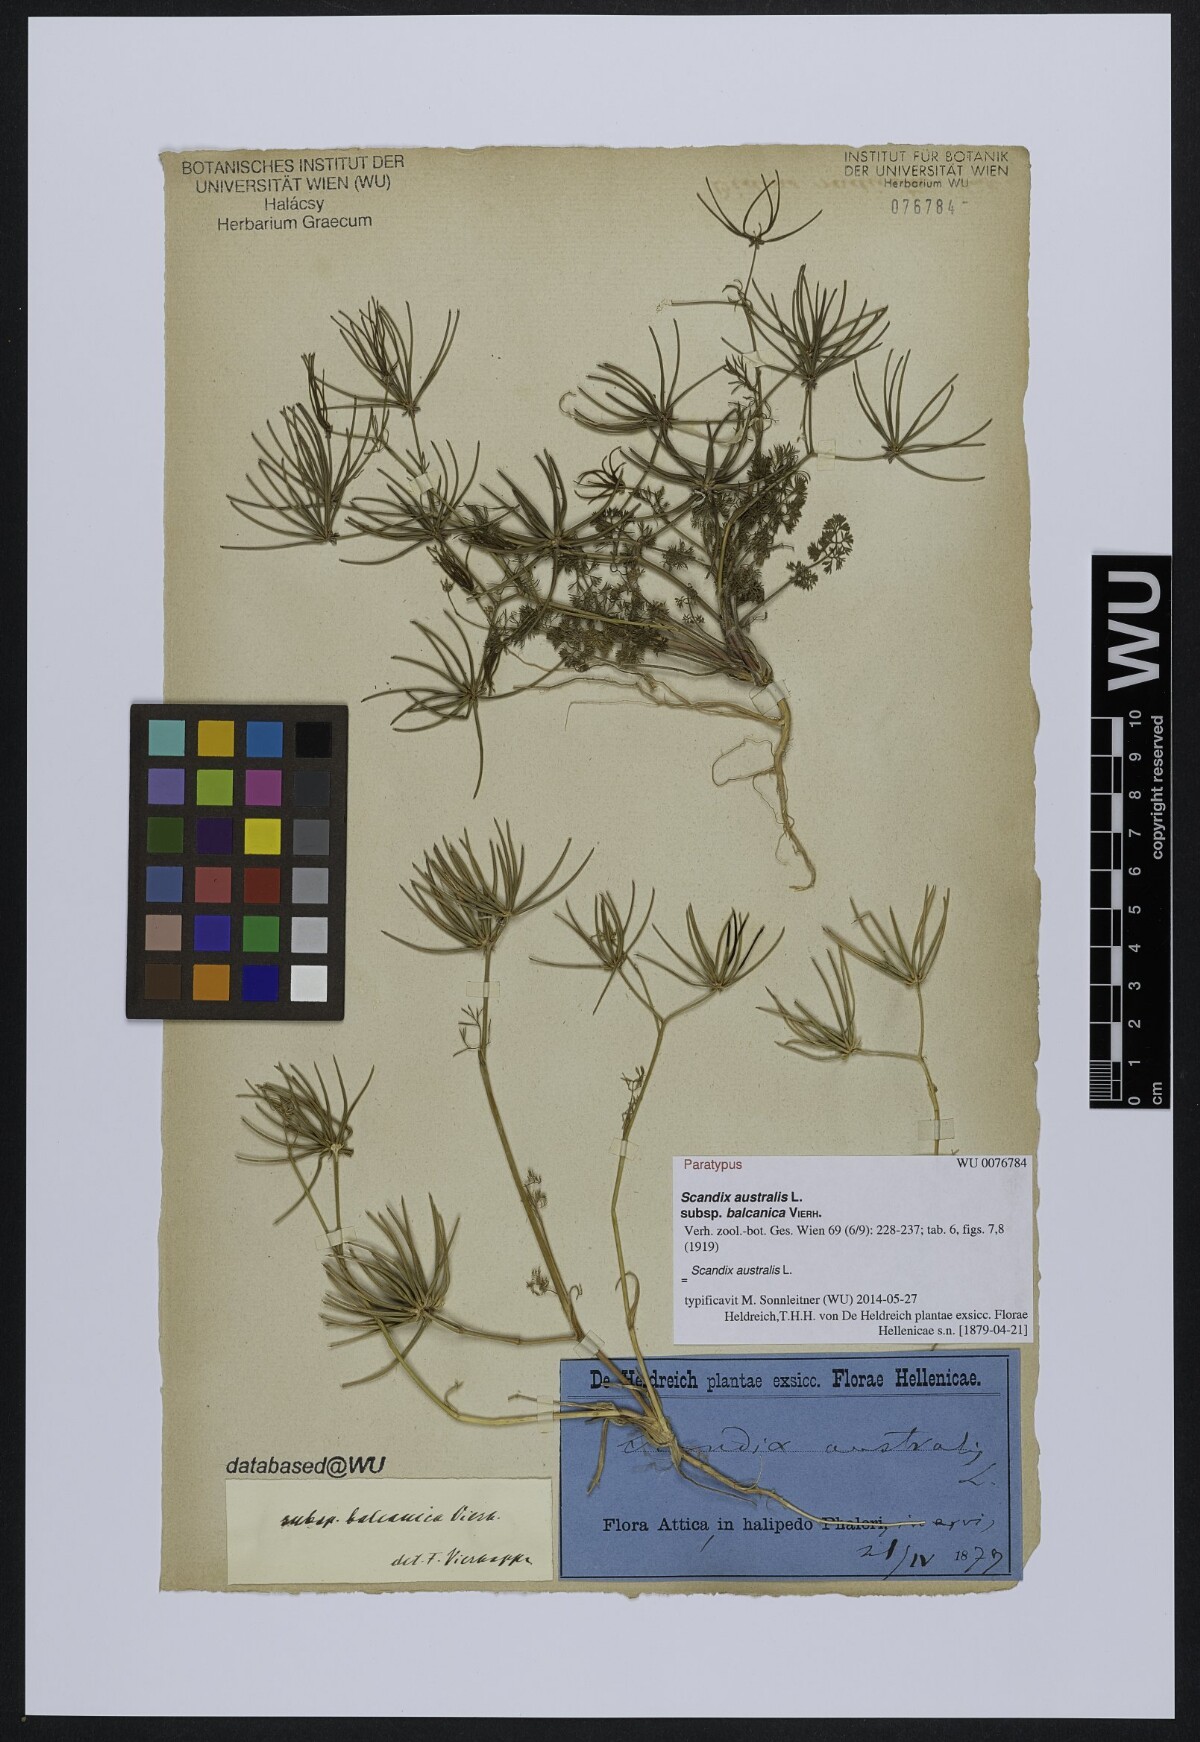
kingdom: Plantae
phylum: Tracheophyta
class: Magnoliopsida
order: Apiales
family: Apiaceae
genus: Scandix
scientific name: Scandix australis
